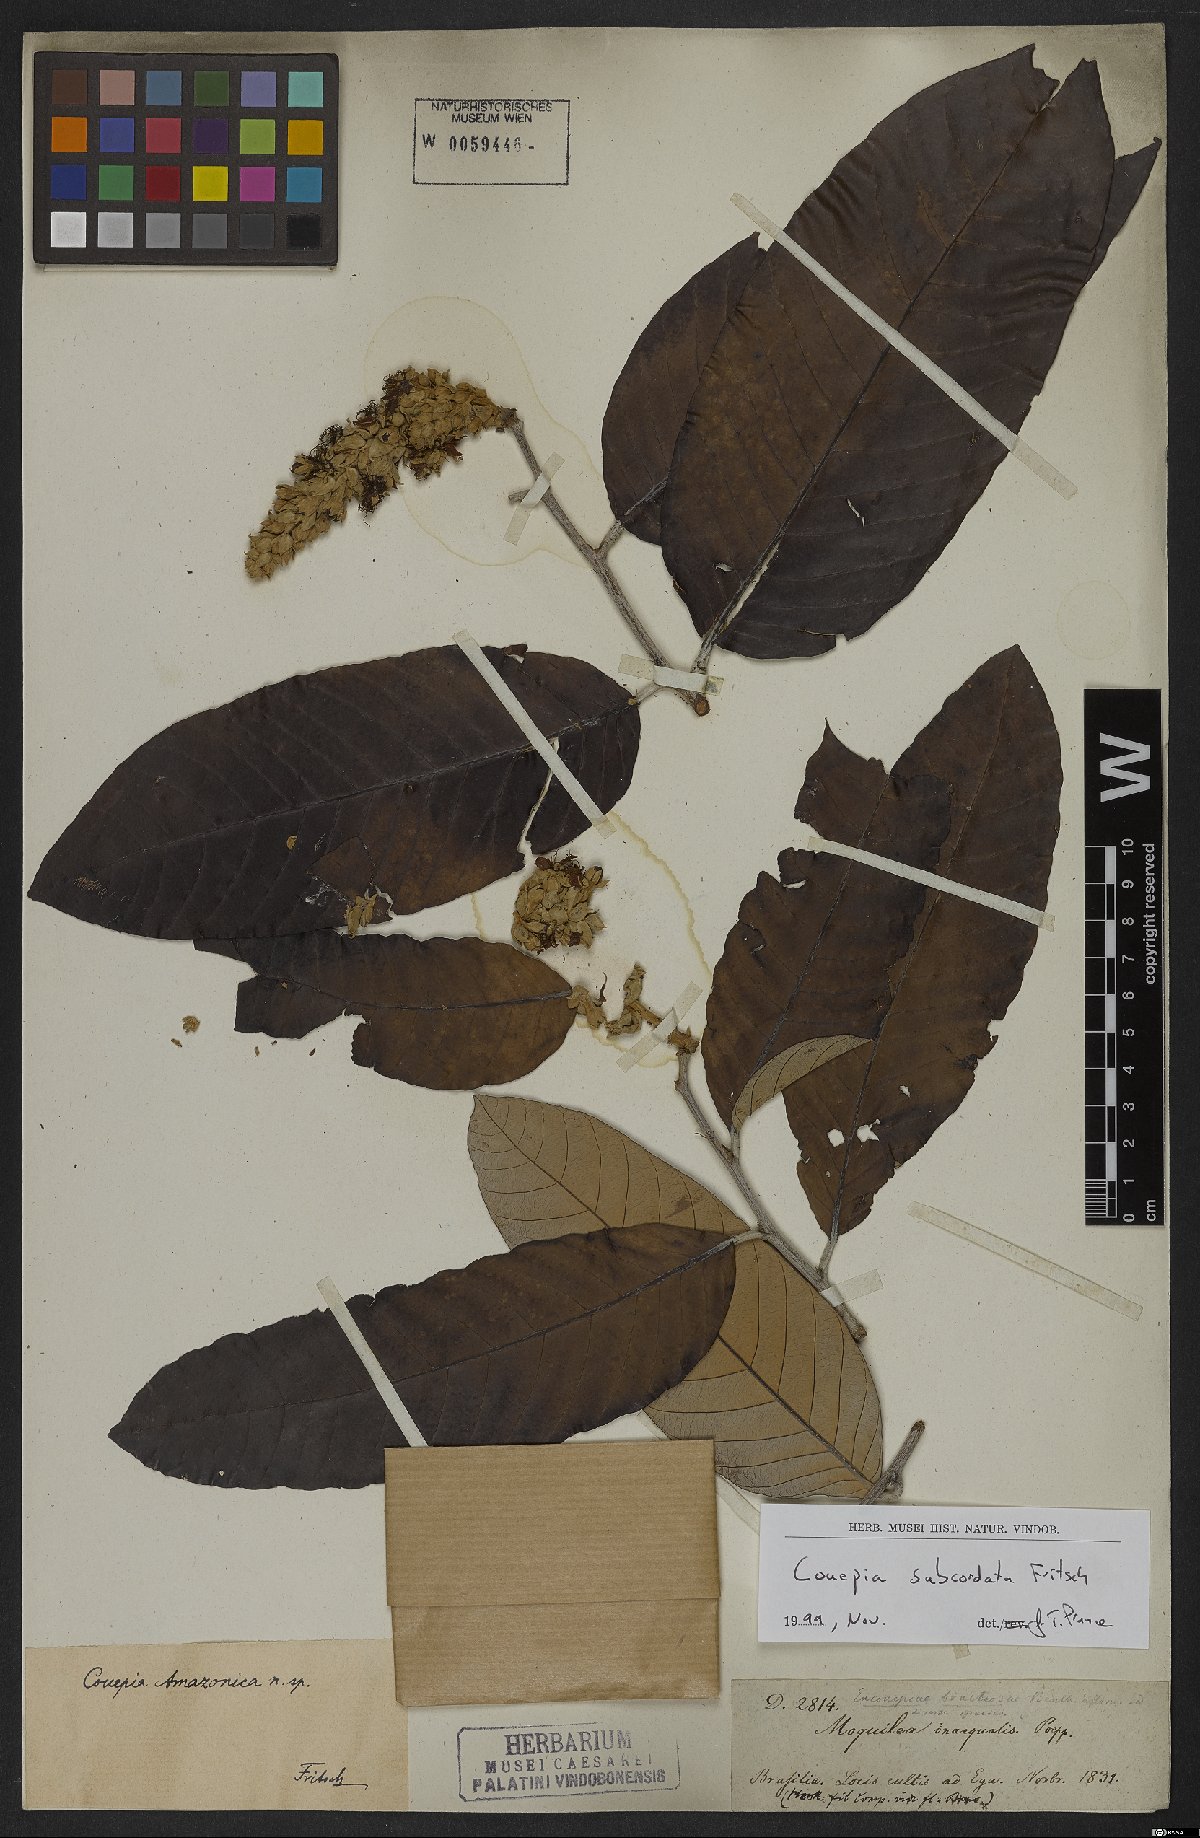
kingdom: Plantae
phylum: Tracheophyta
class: Magnoliopsida
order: Malpighiales
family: Chrysobalanaceae
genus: Couepia
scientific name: Couepia subcordata
